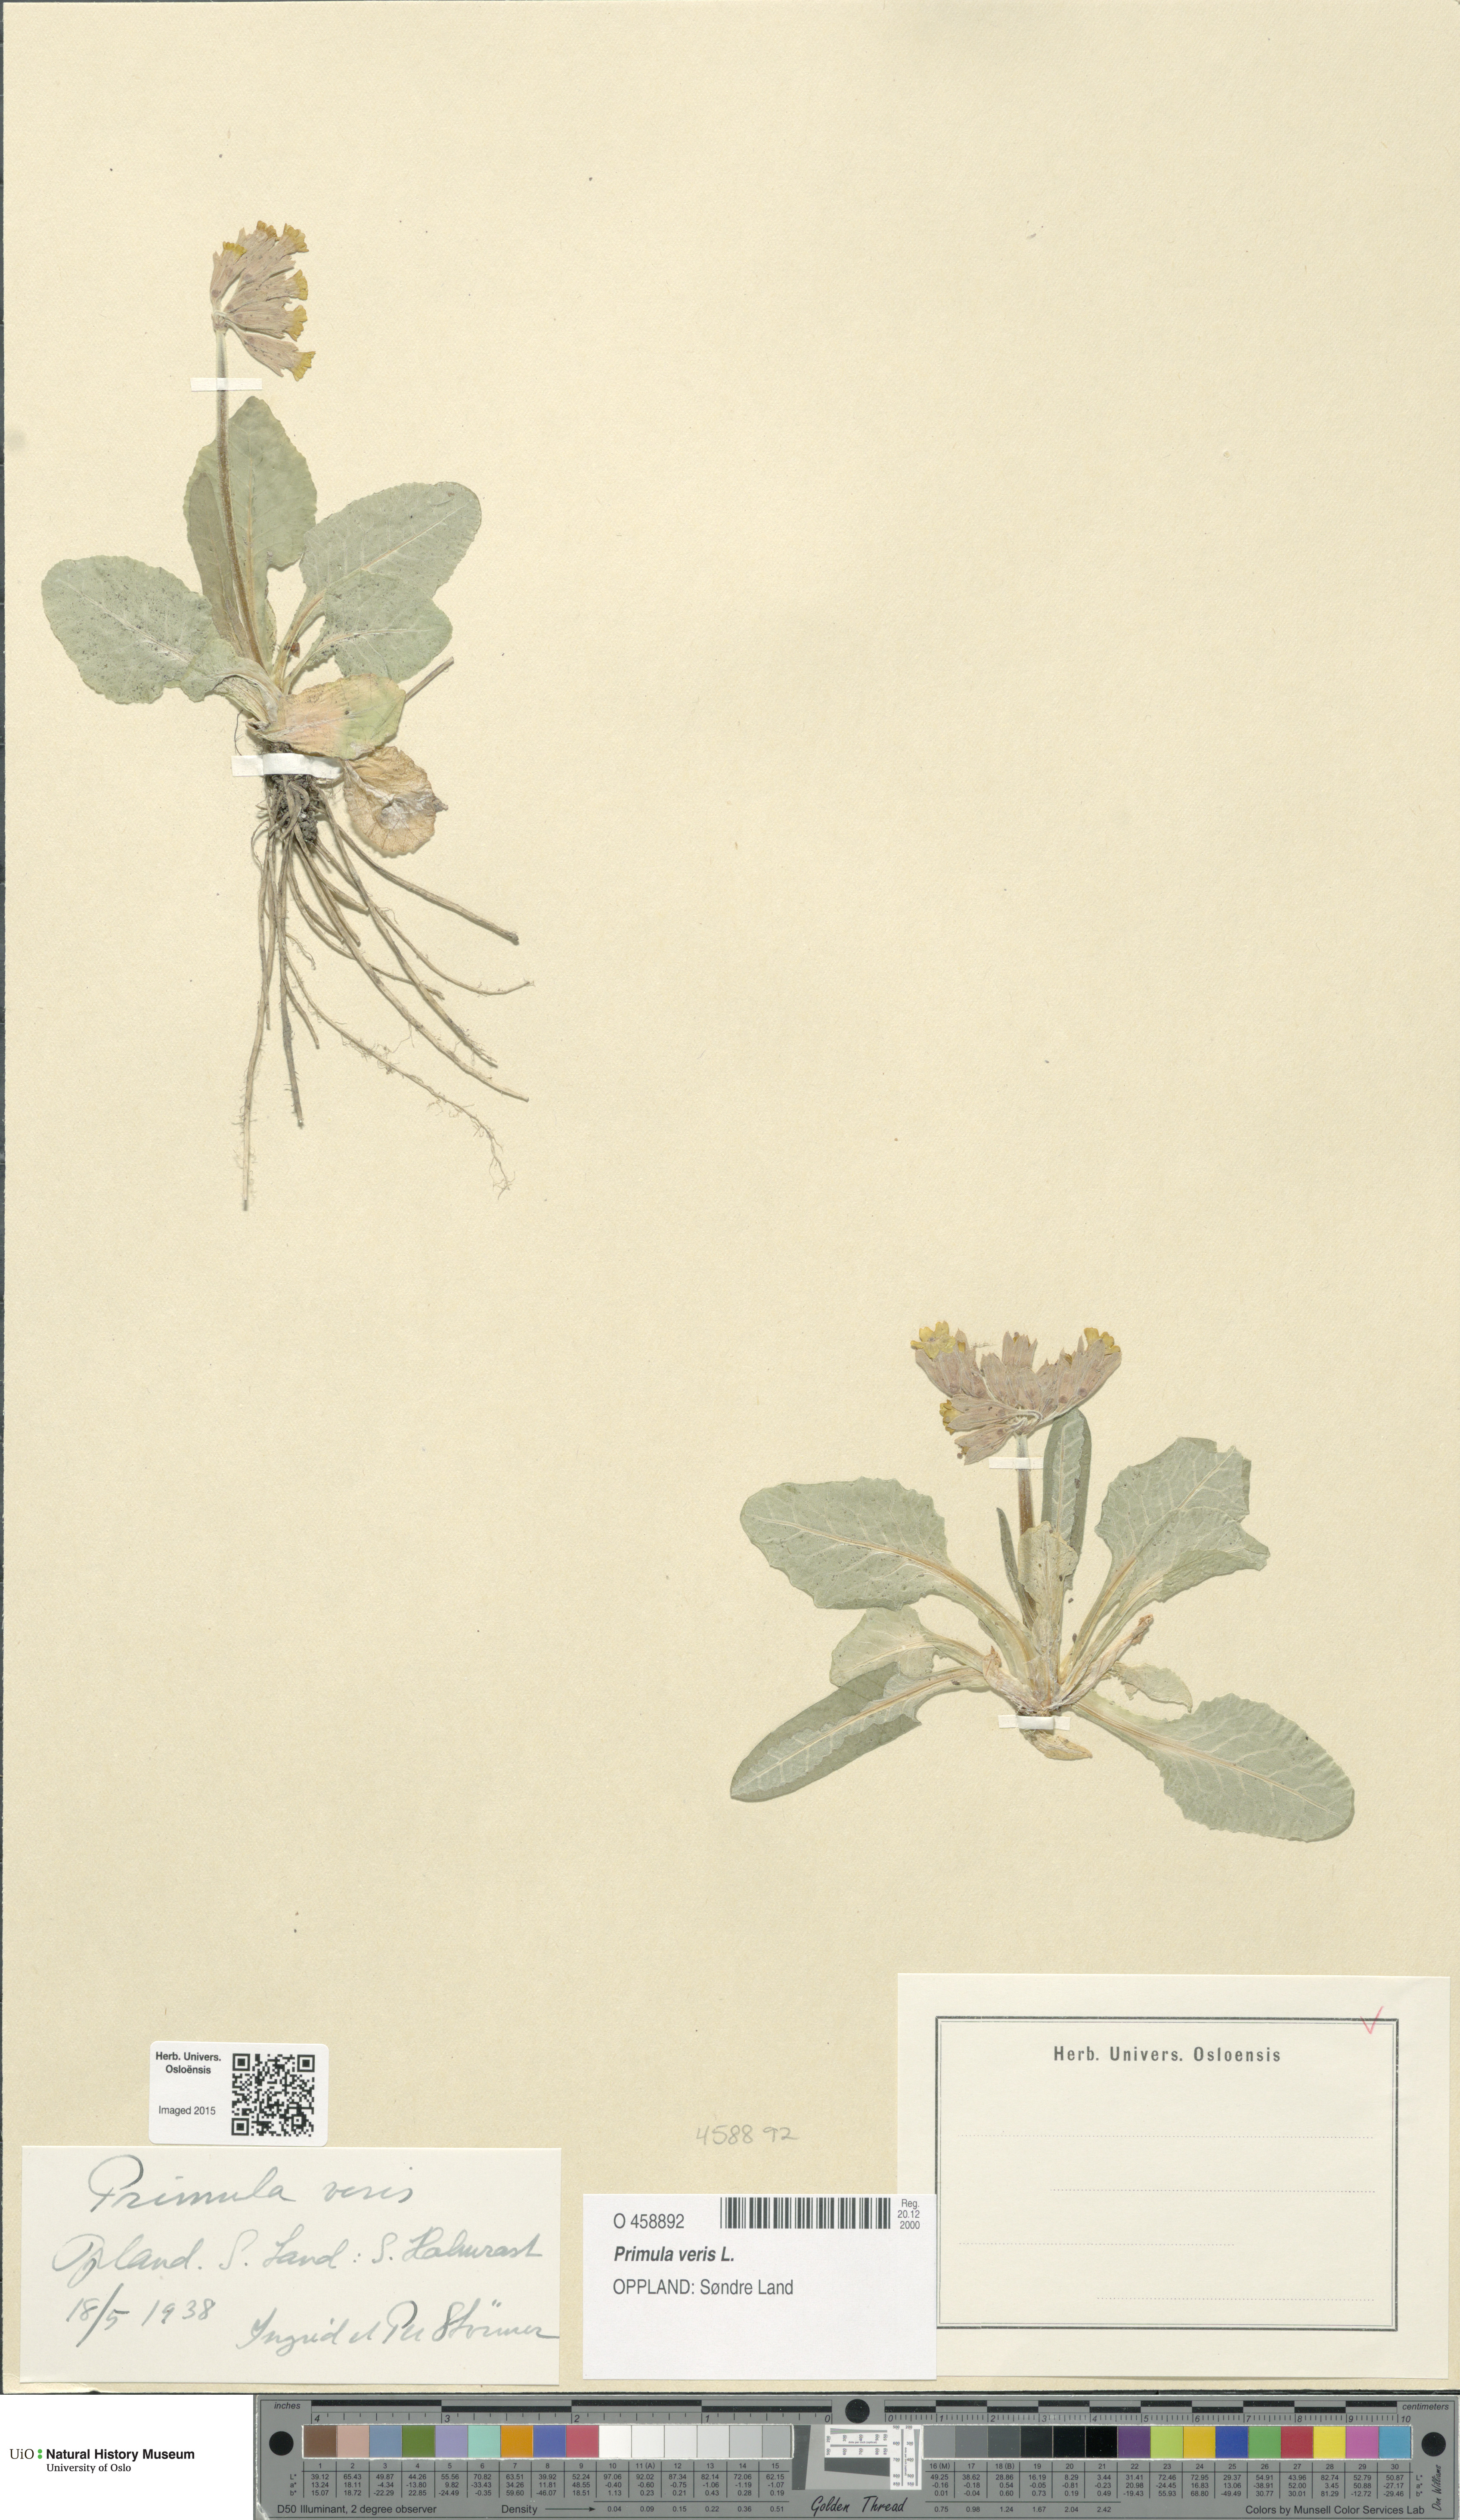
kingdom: Plantae
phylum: Tracheophyta
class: Magnoliopsida
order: Ericales
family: Primulaceae
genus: Primula
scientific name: Primula veris
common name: Cowslip
